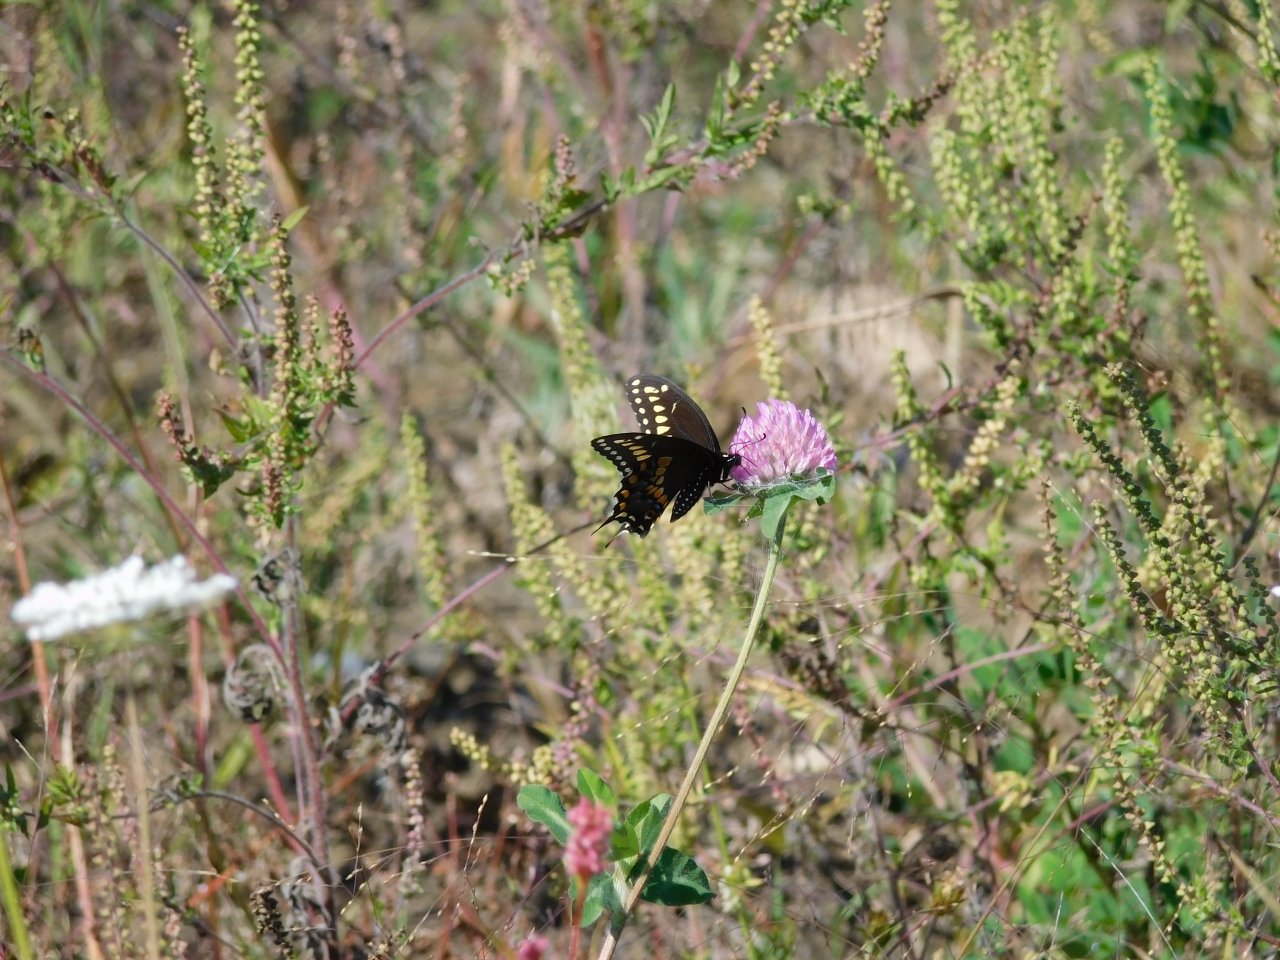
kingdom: Animalia
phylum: Arthropoda
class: Insecta
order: Lepidoptera
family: Papilionidae
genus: Papilio
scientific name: Papilio polyxenes
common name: Black Swallowtail
